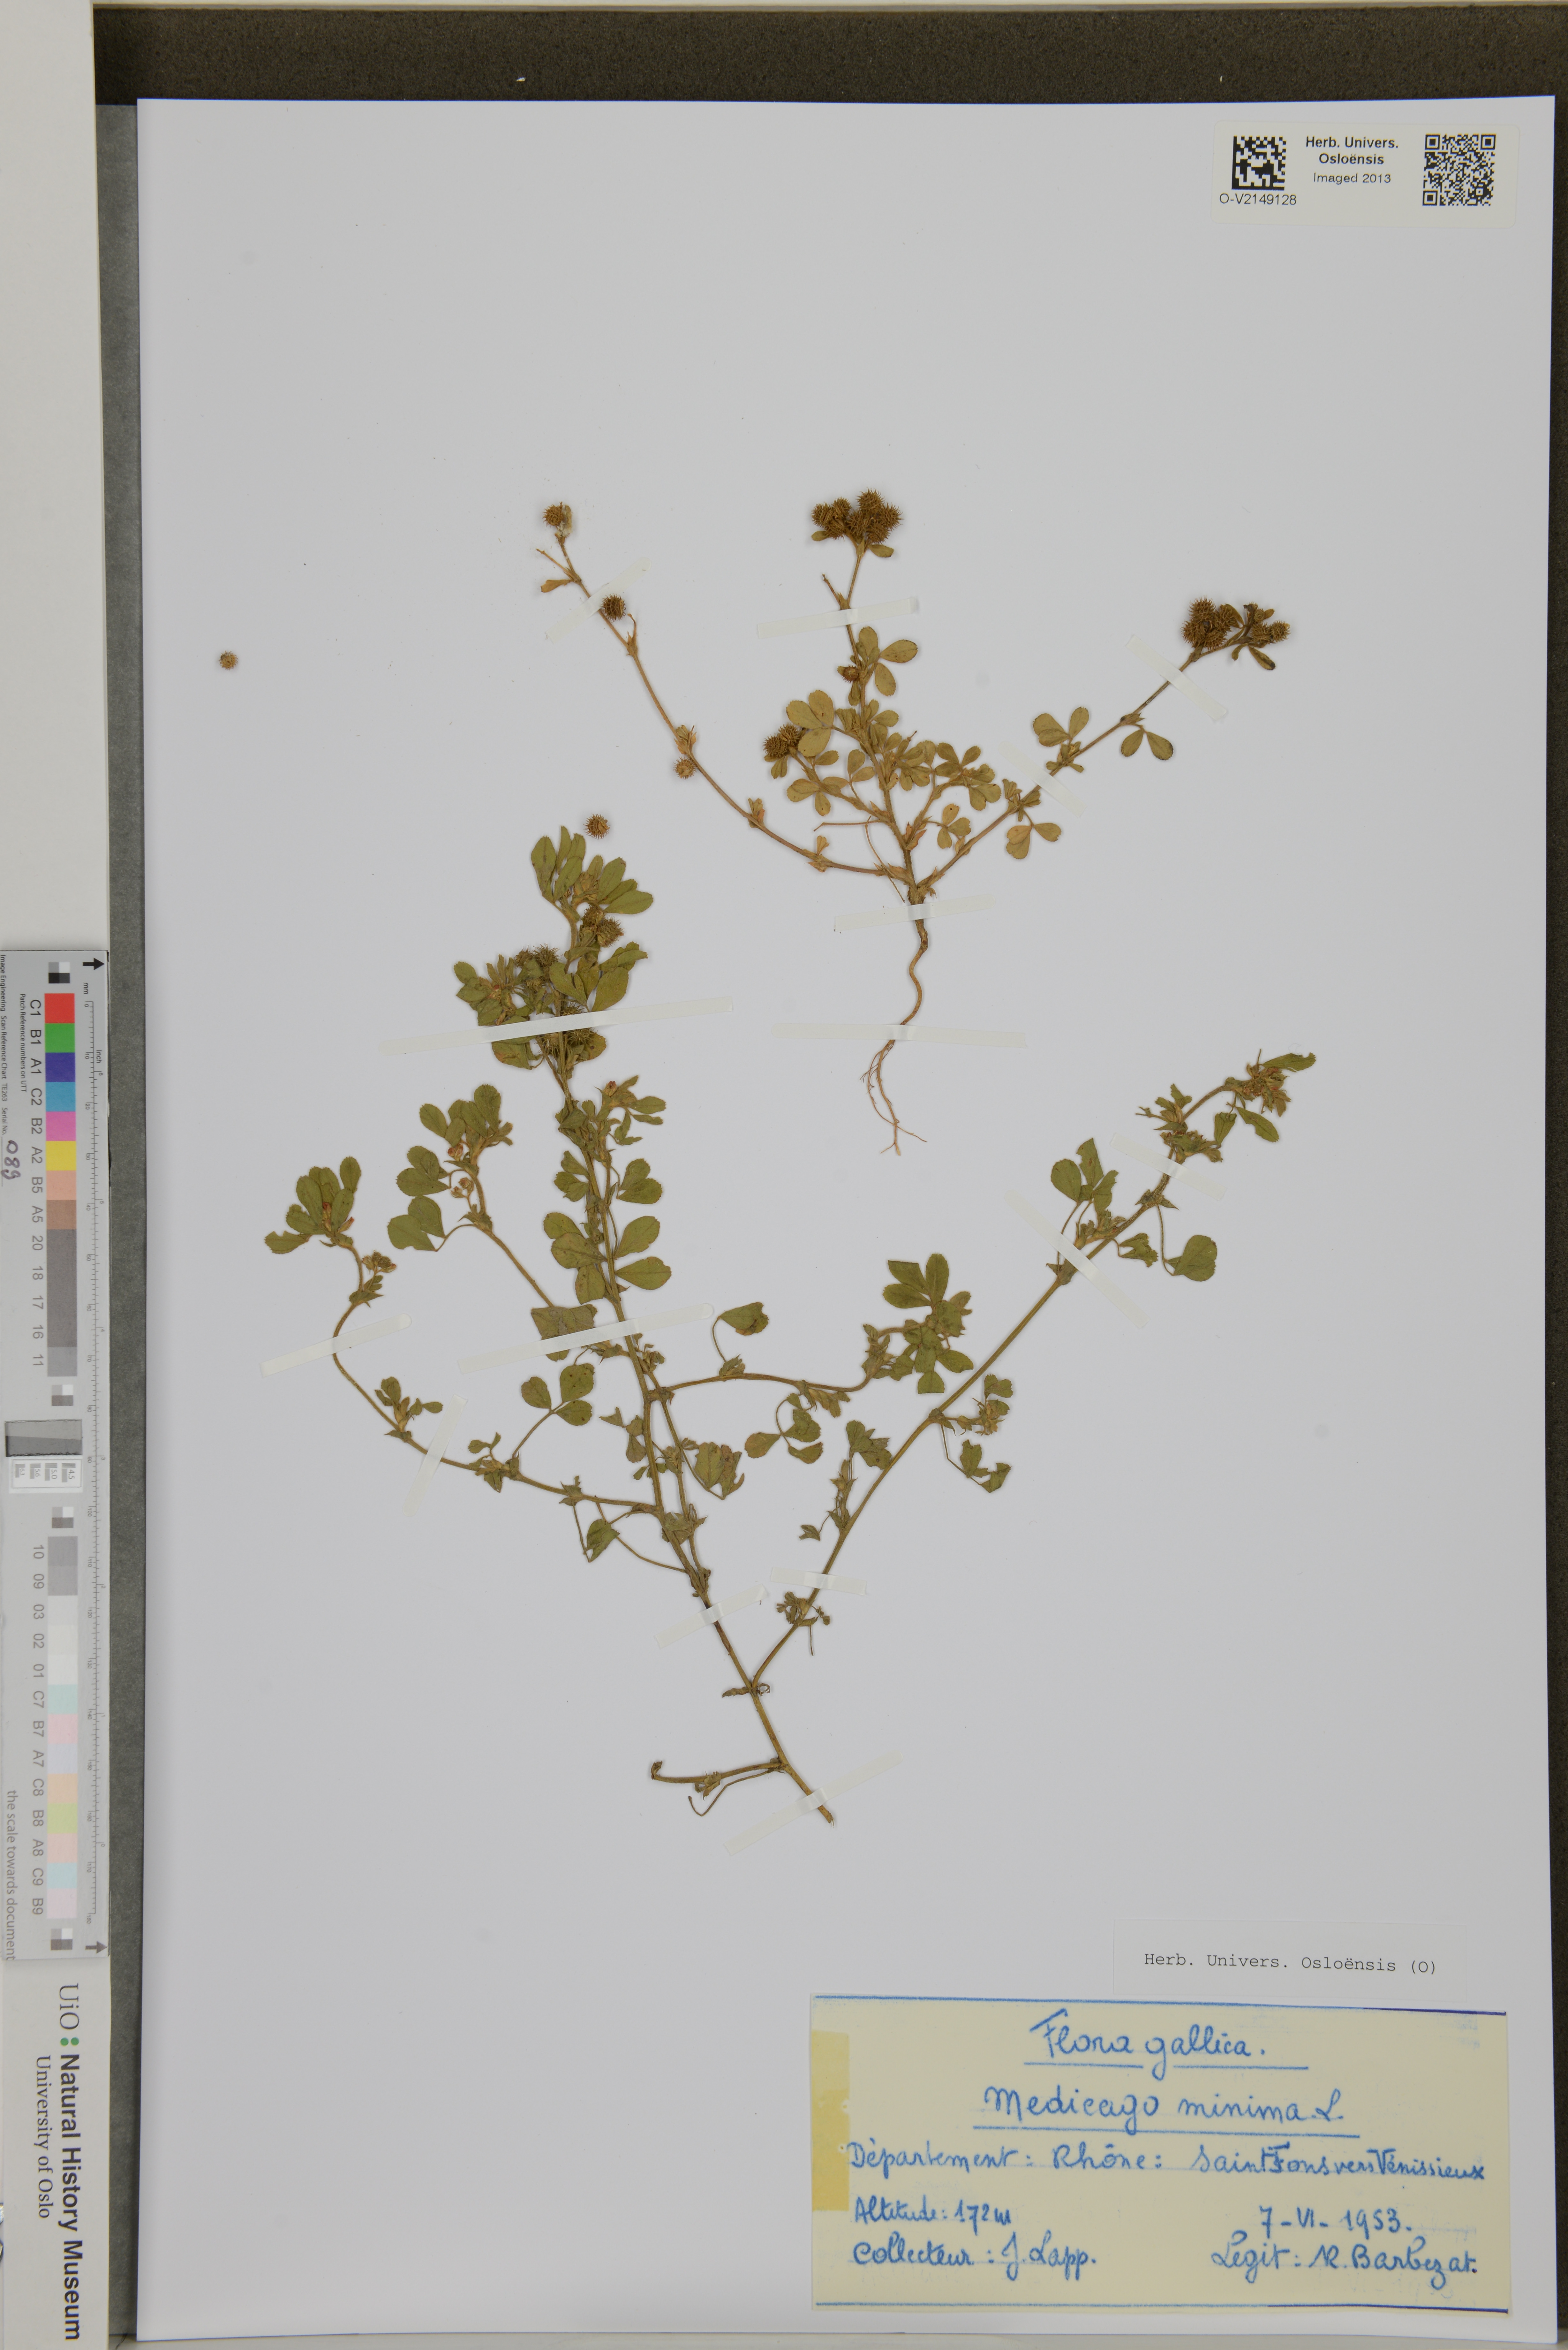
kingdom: Plantae
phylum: Tracheophyta
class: Magnoliopsida
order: Fabales
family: Fabaceae
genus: Medicago
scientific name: Medicago minima
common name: Little bur-clover
